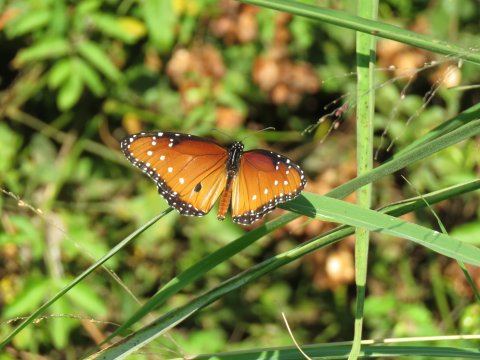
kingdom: Animalia
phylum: Arthropoda
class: Insecta
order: Lepidoptera
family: Nymphalidae
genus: Danaus
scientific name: Danaus gilippus
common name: Queen
